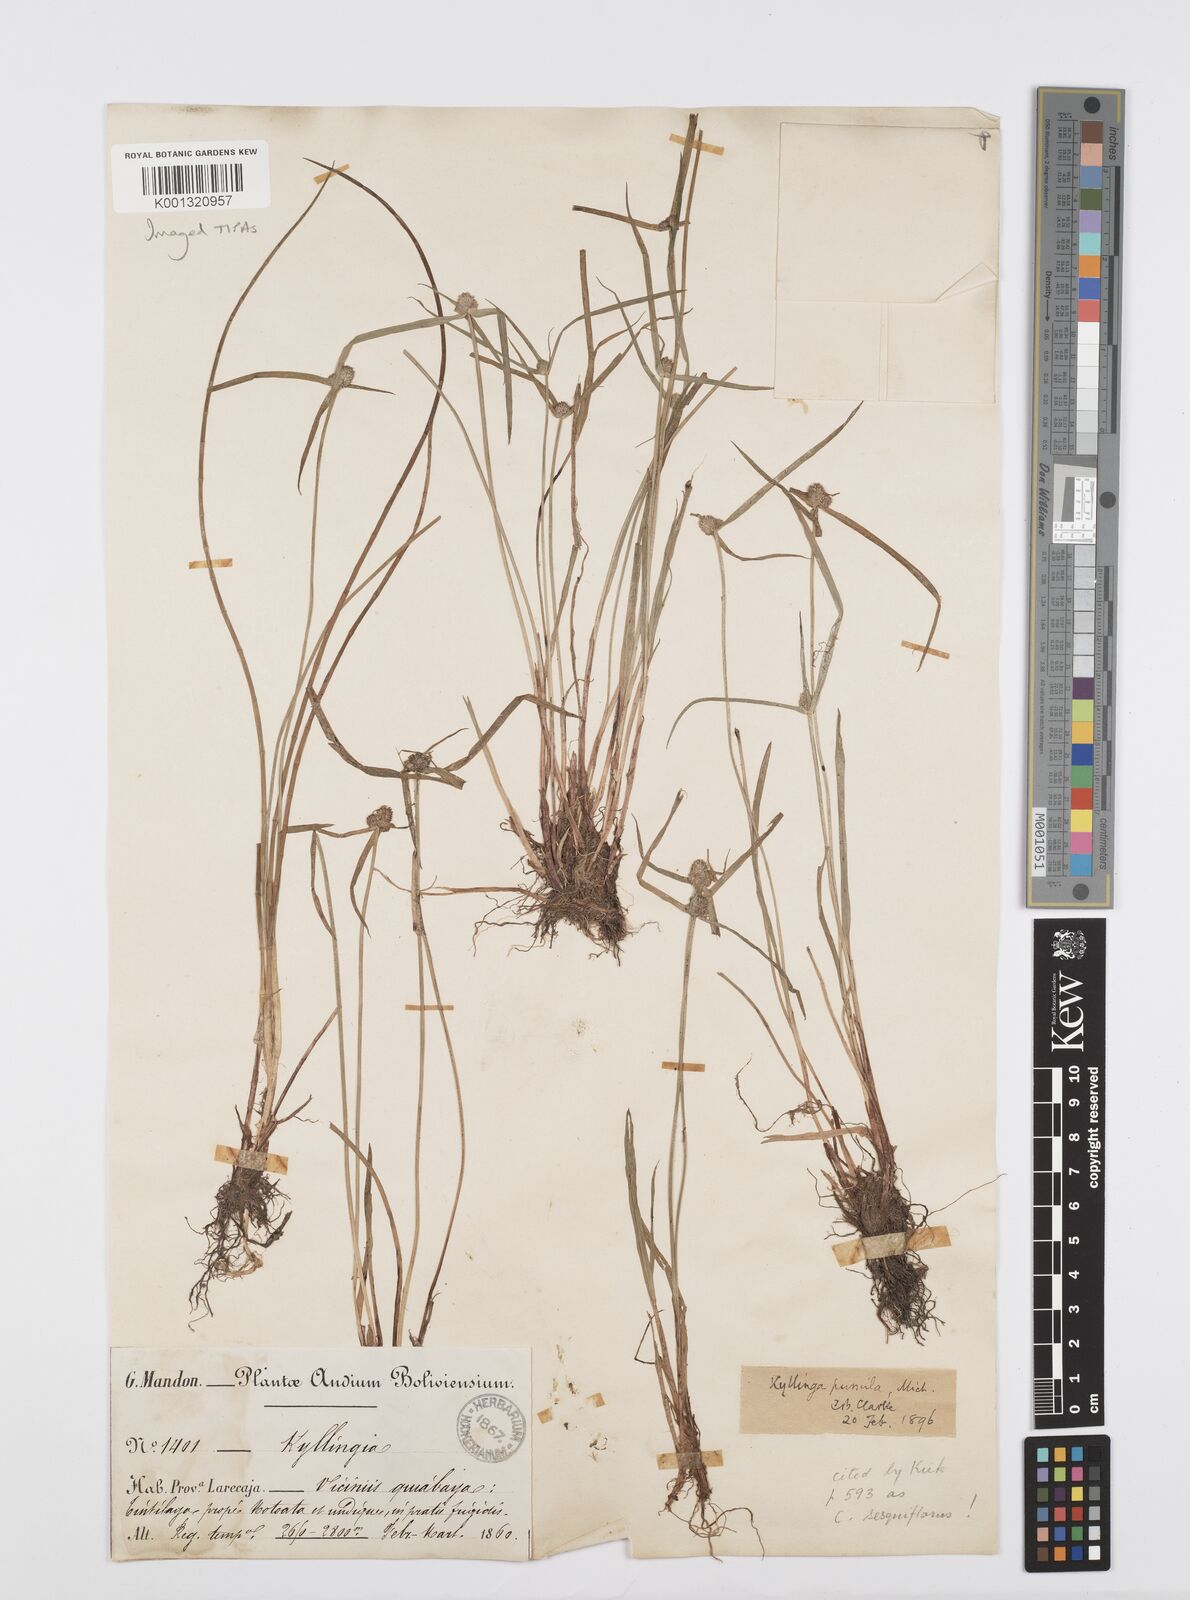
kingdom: Plantae
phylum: Tracheophyta
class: Liliopsida
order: Poales
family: Cyperaceae
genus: Cyperus
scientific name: Cyperus
